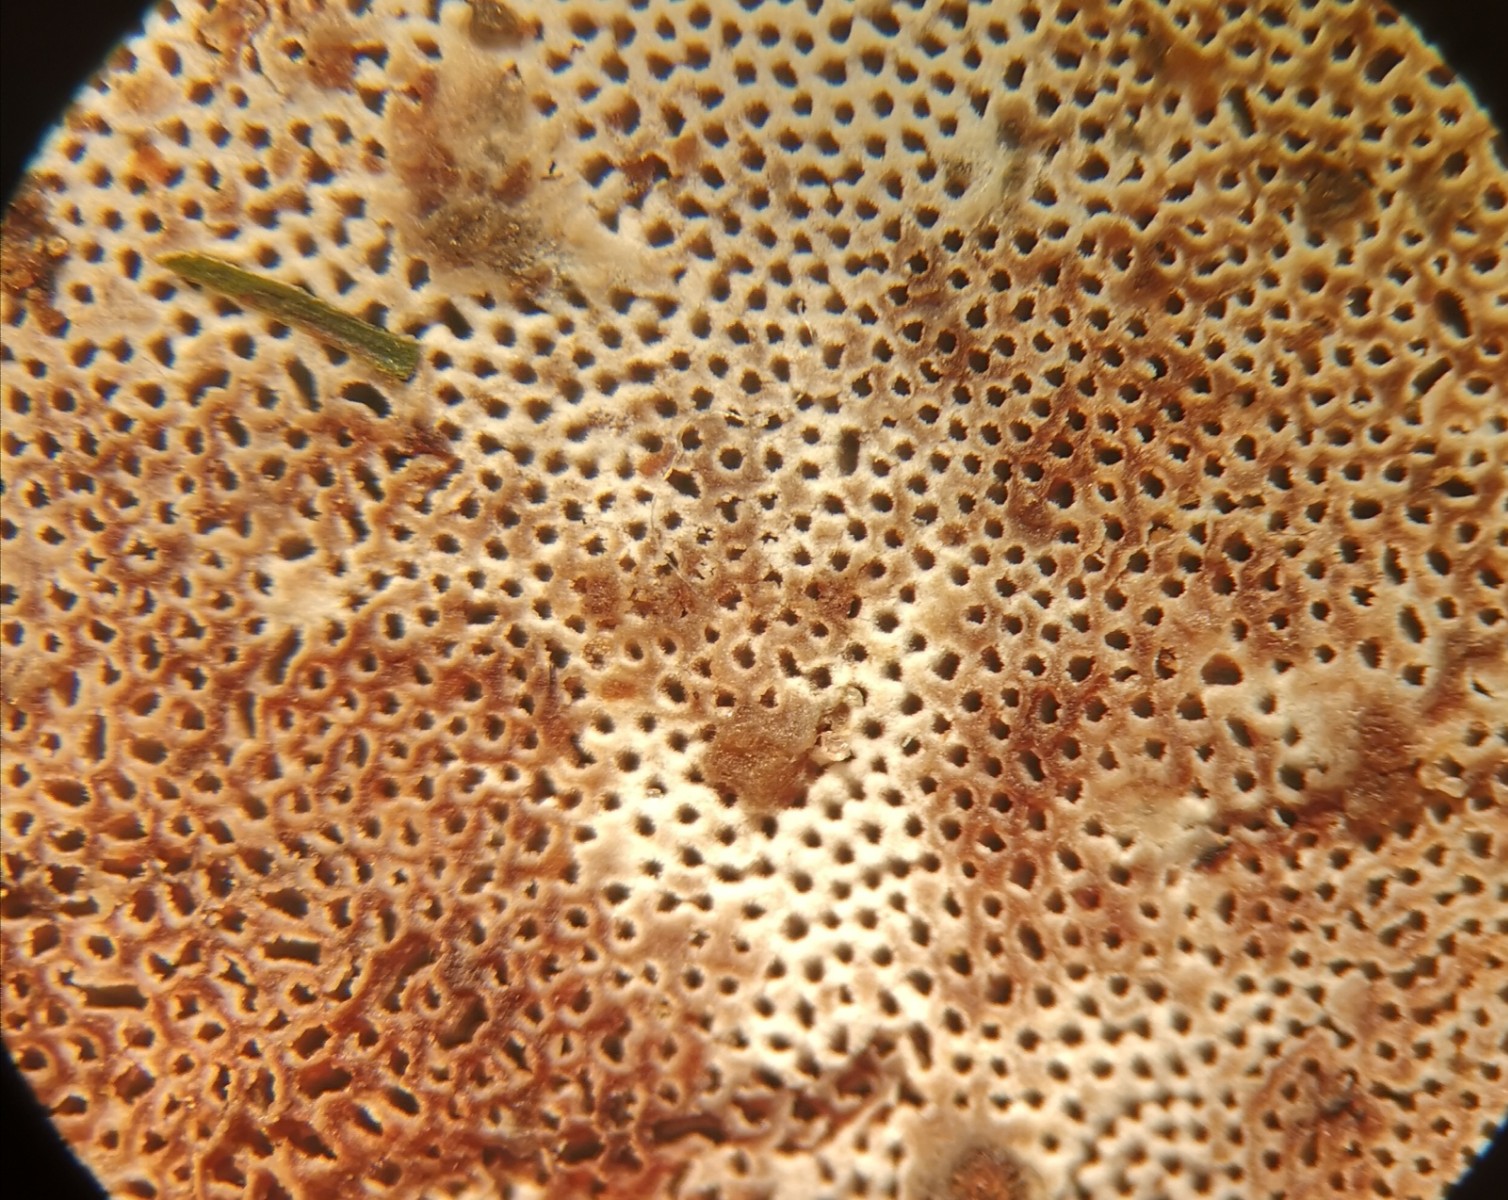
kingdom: Fungi
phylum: Basidiomycota
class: Agaricomycetes
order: Polyporales
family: Polyporaceae
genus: Ganoderma
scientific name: Ganoderma applanatum
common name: flad lakporesvamp
